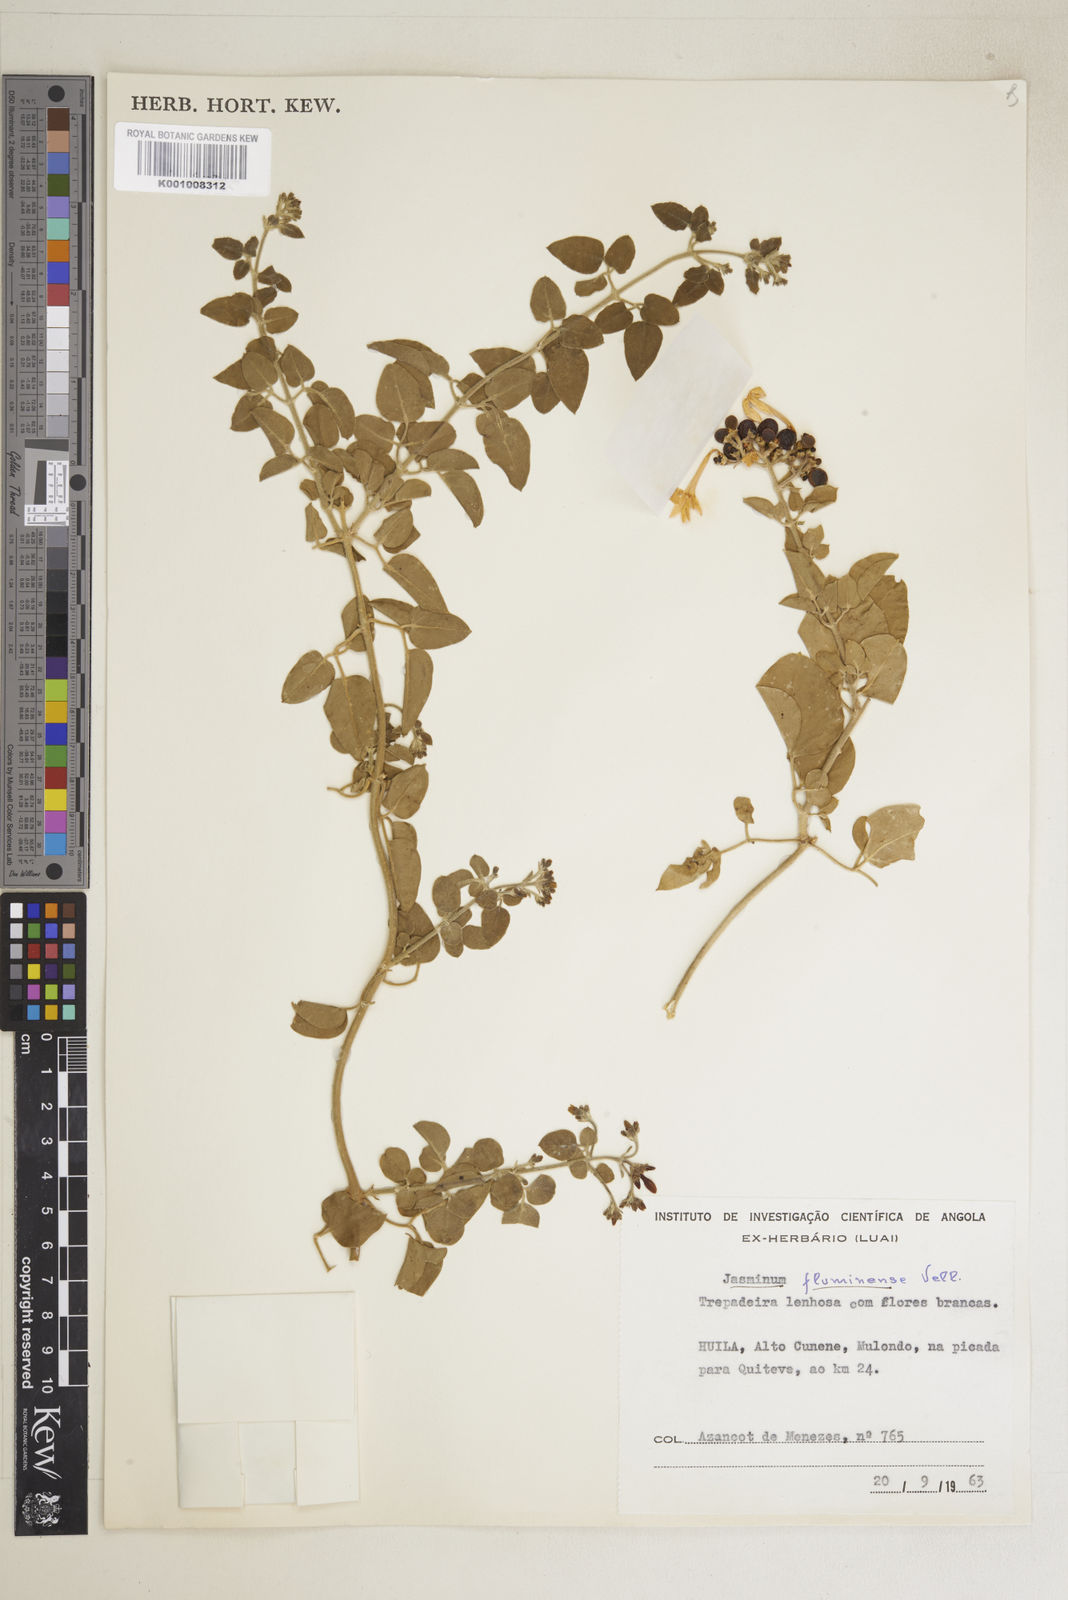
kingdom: Plantae
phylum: Tracheophyta
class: Magnoliopsida
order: Lamiales
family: Oleaceae
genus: Jasminum
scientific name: Jasminum fluminense
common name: Brazilian jasmine
